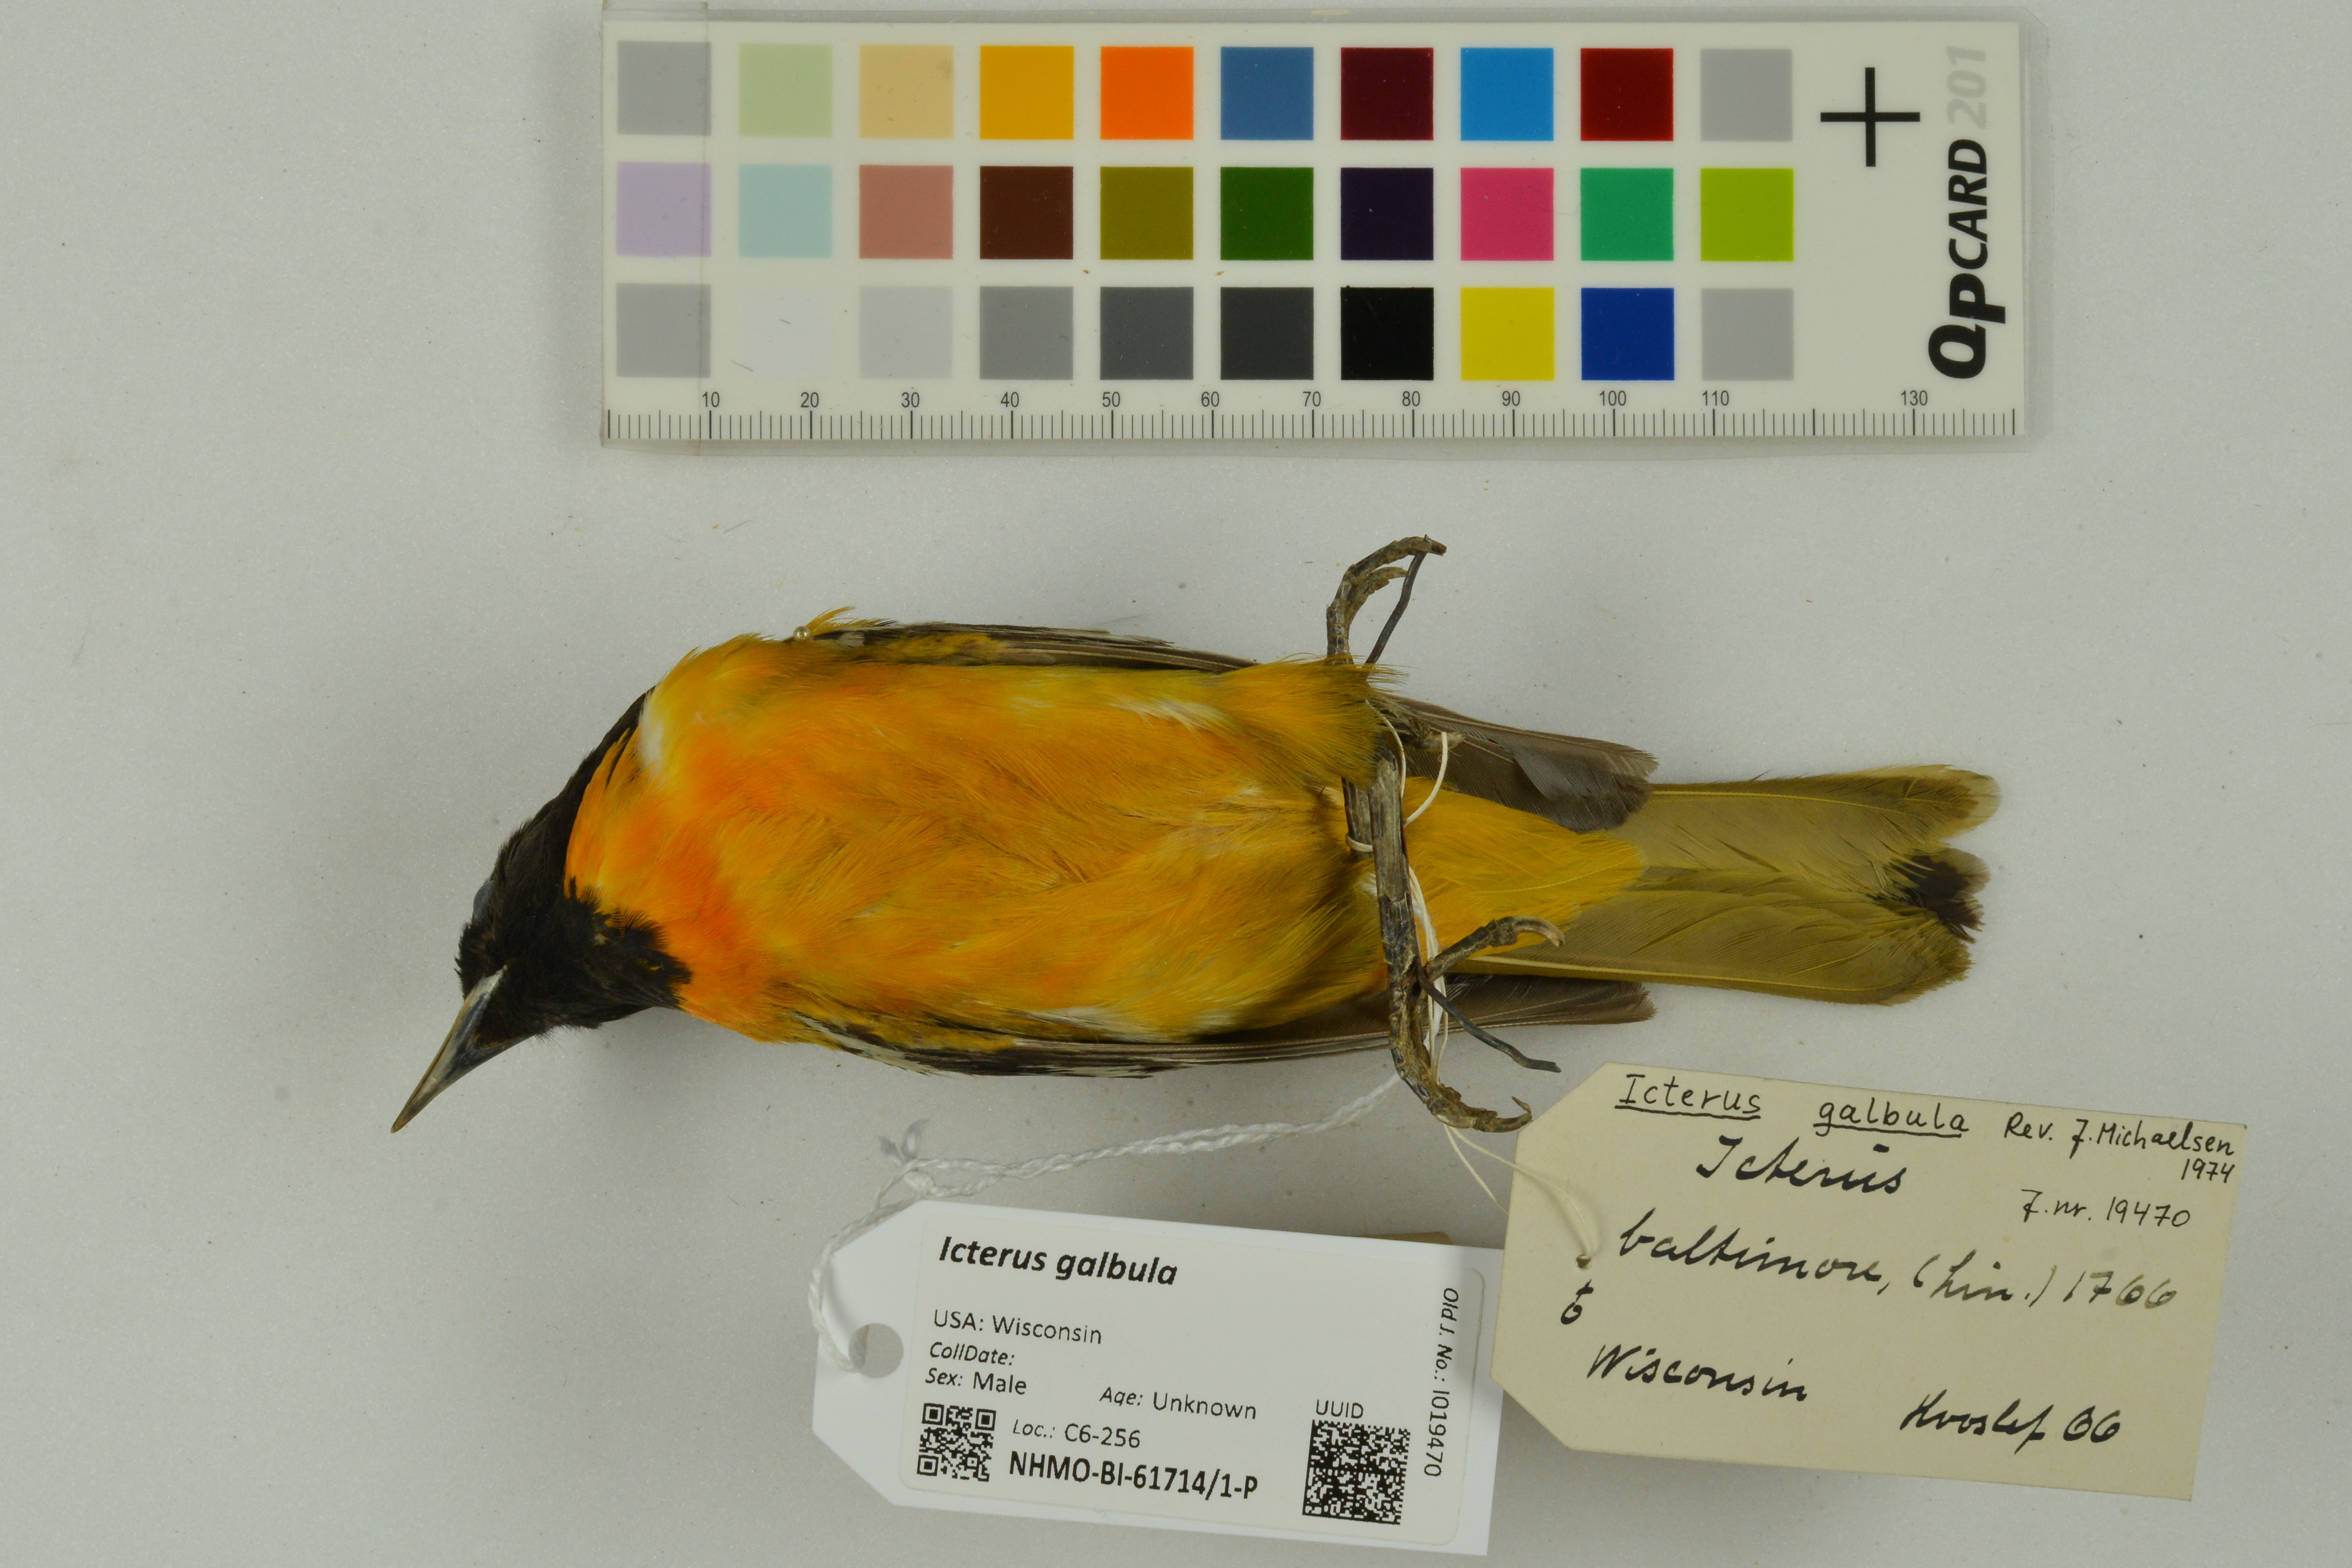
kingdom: Animalia
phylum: Chordata
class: Aves
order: Passeriformes
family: Icteridae
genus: Icterus
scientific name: Icterus galbula
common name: Baltimore oriole
